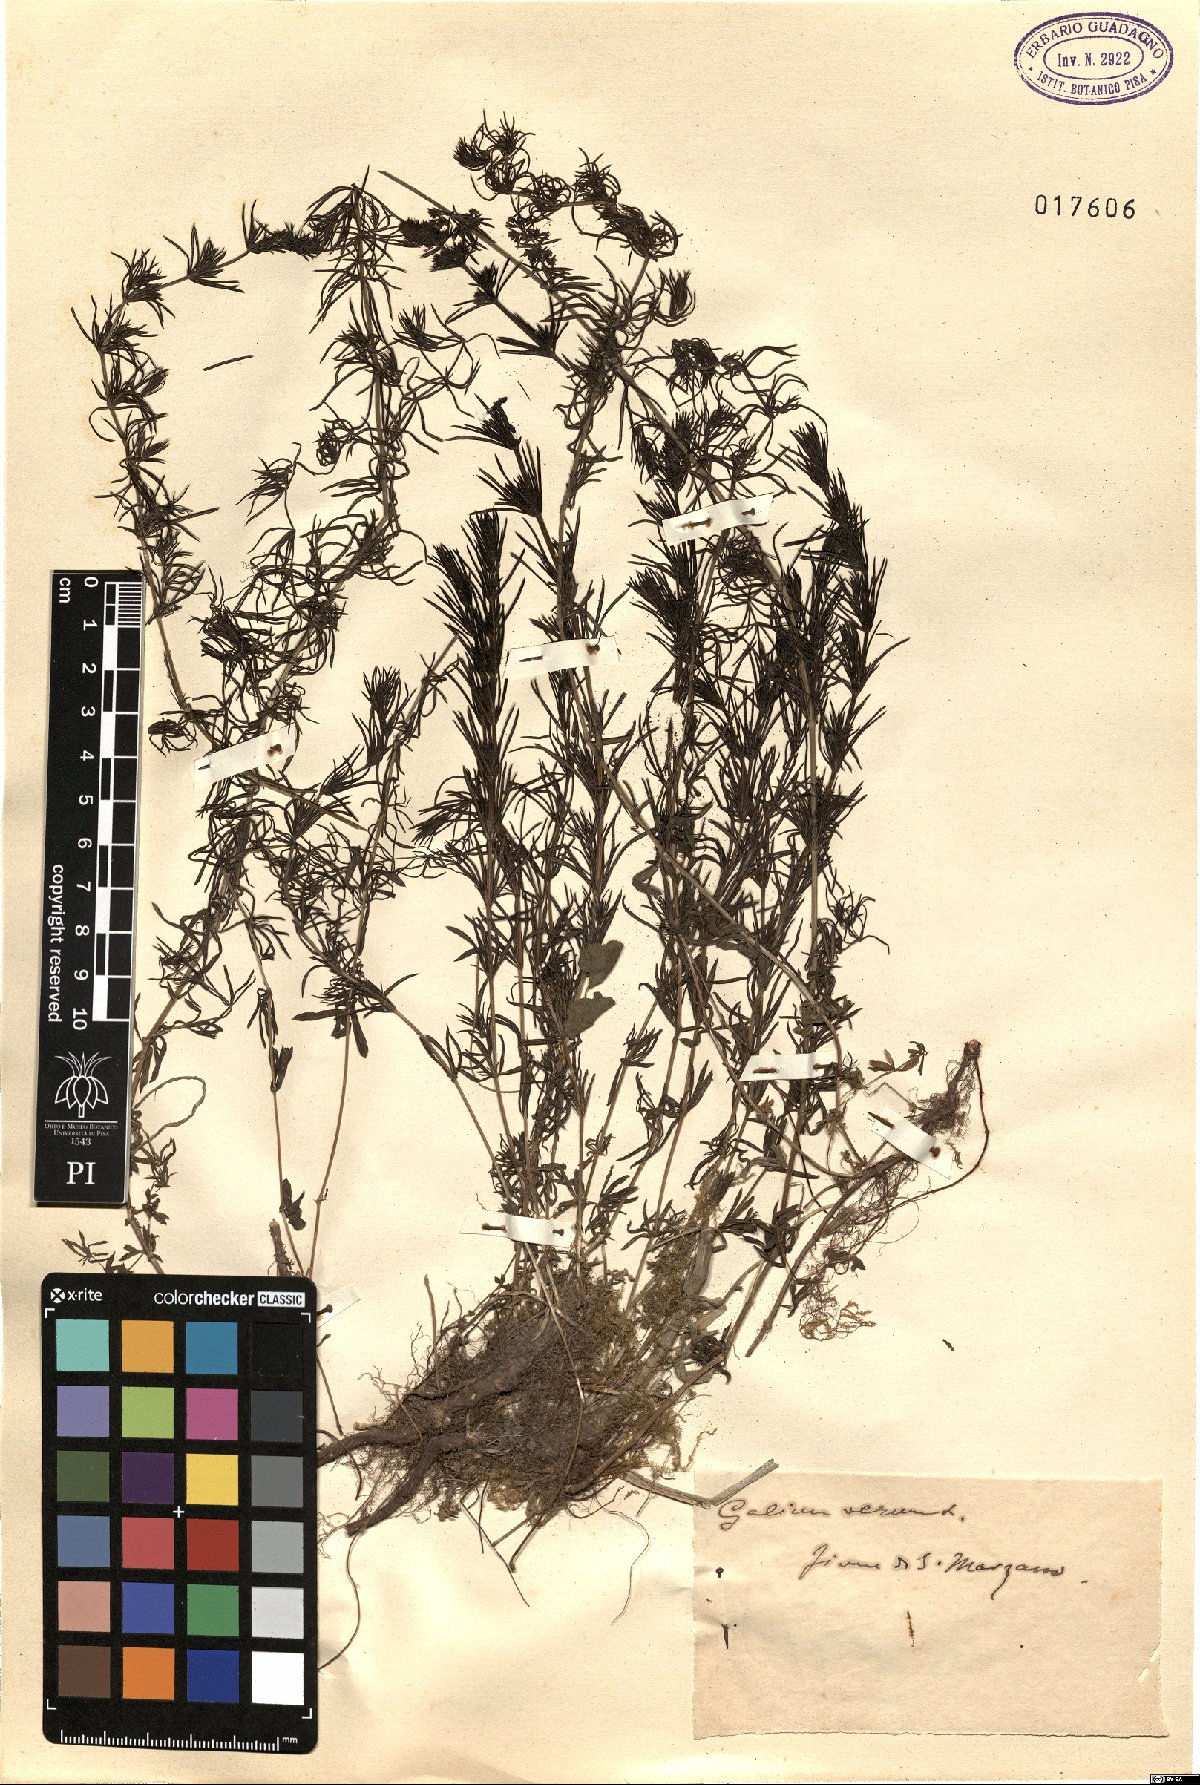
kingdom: Plantae
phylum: Tracheophyta
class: Magnoliopsida
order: Gentianales
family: Rubiaceae
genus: Galium
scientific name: Galium verum
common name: Lady's bedstraw
